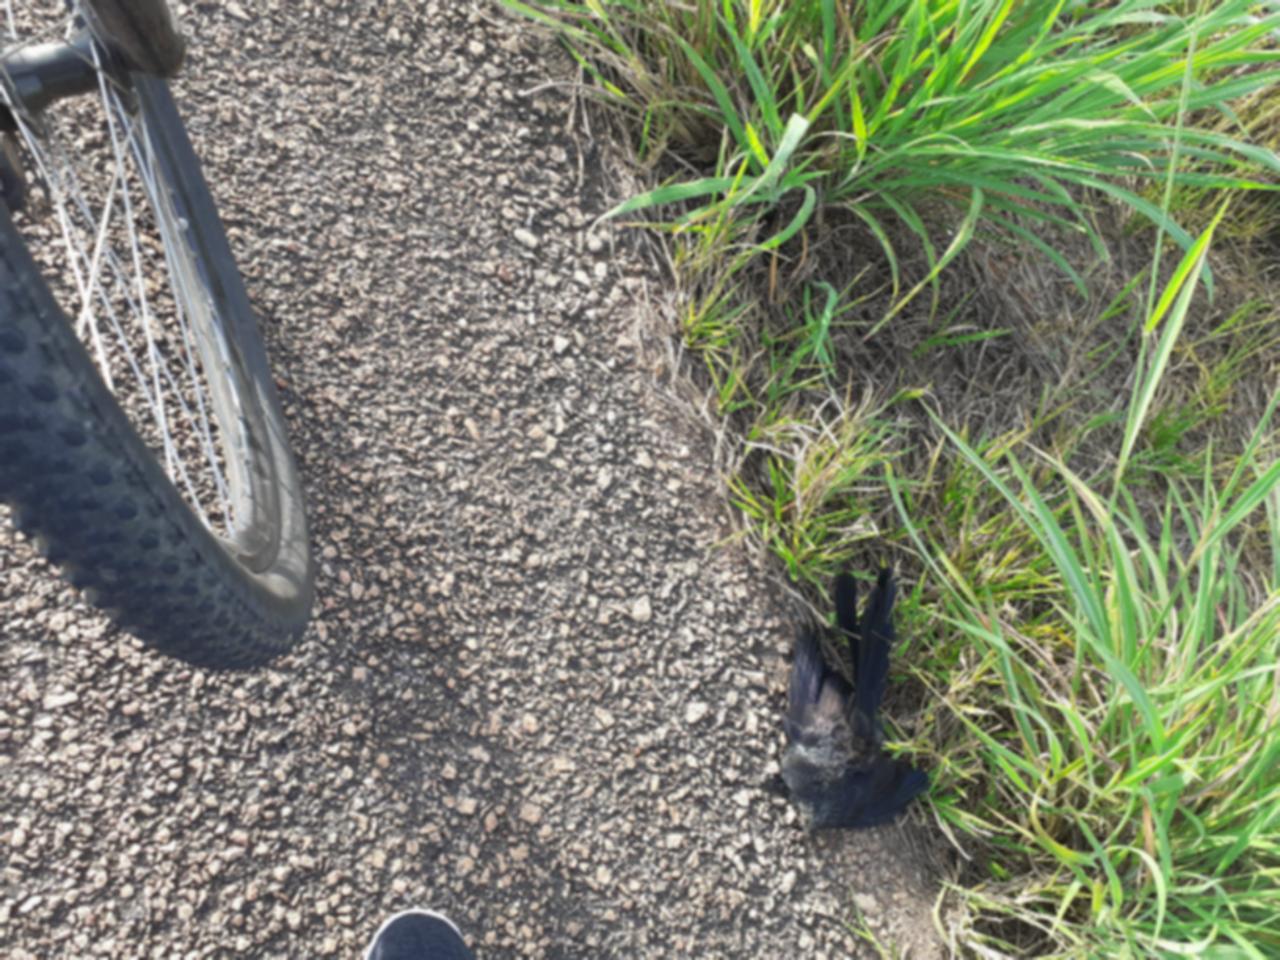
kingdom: Animalia
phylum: Chordata
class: Aves
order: Cuculiformes
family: Cuculidae
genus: Crotophaga
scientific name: Crotophaga ani
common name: Smooth-billed ani
